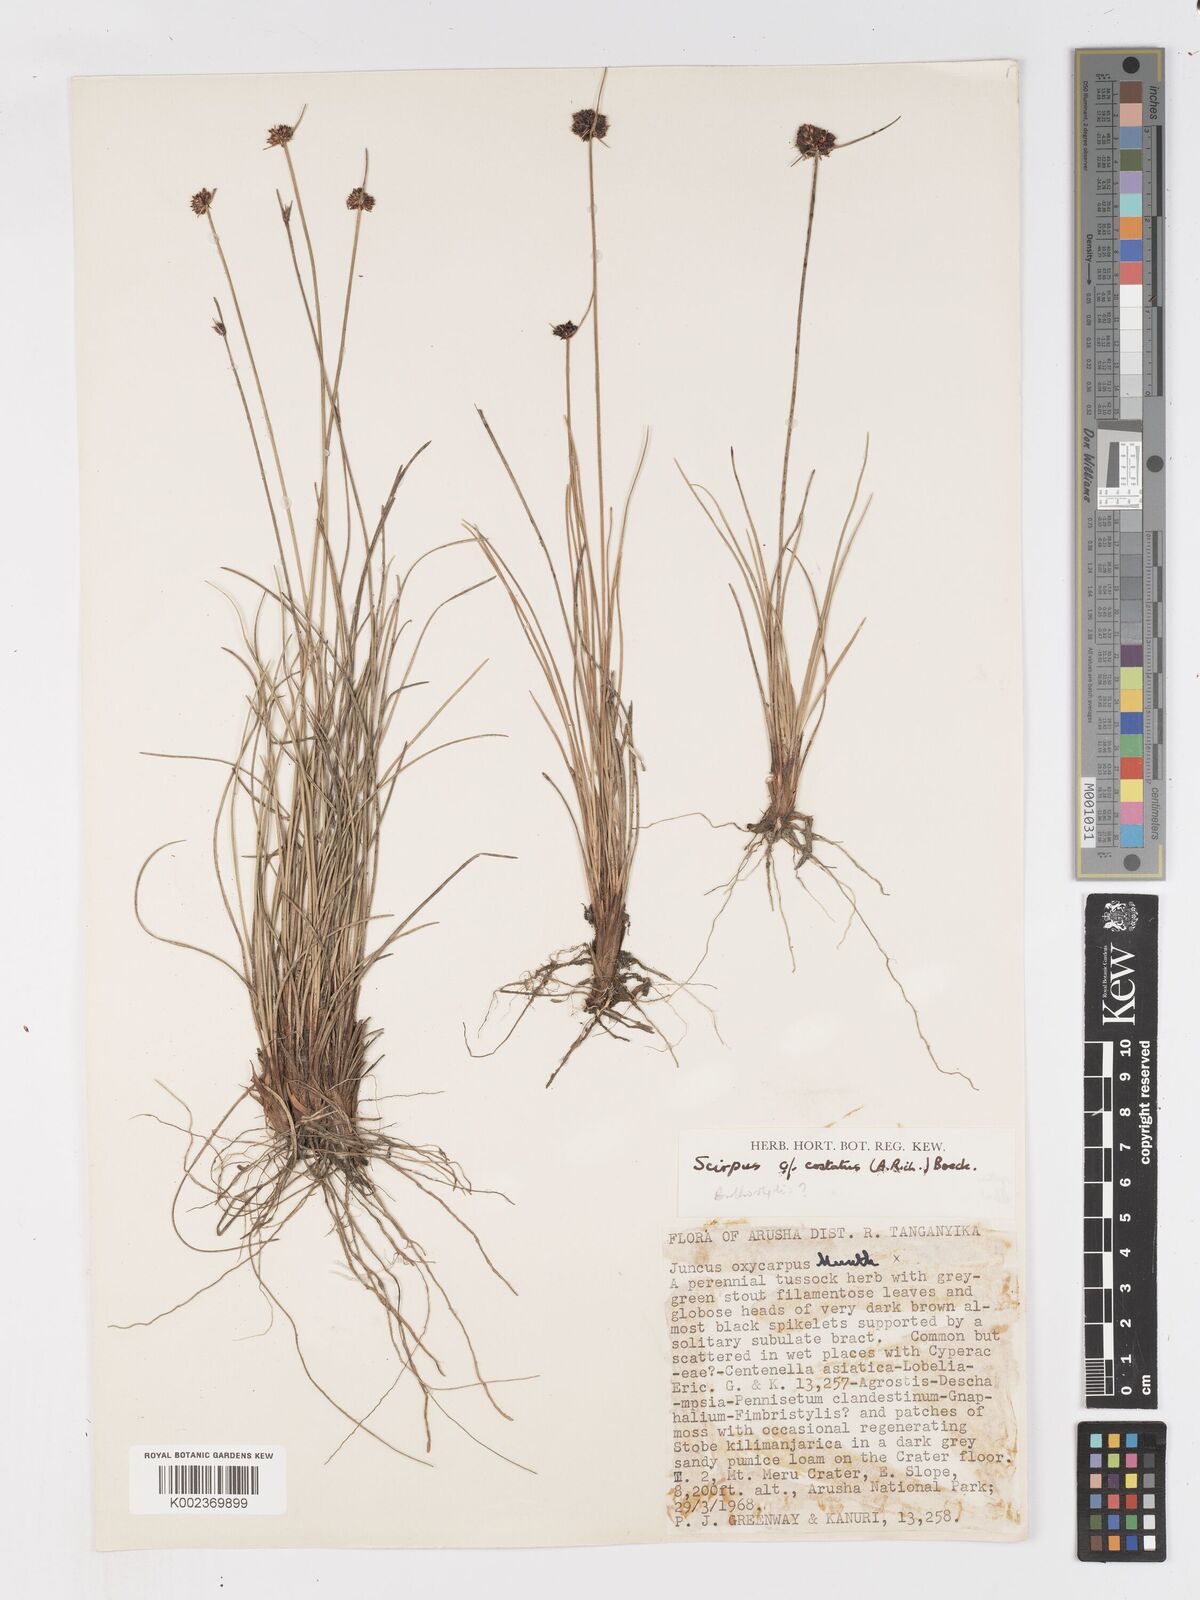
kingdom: Plantae
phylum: Tracheophyta
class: Liliopsida
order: Poales
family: Cyperaceae
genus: Ficinia
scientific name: Ficinia gracilis
